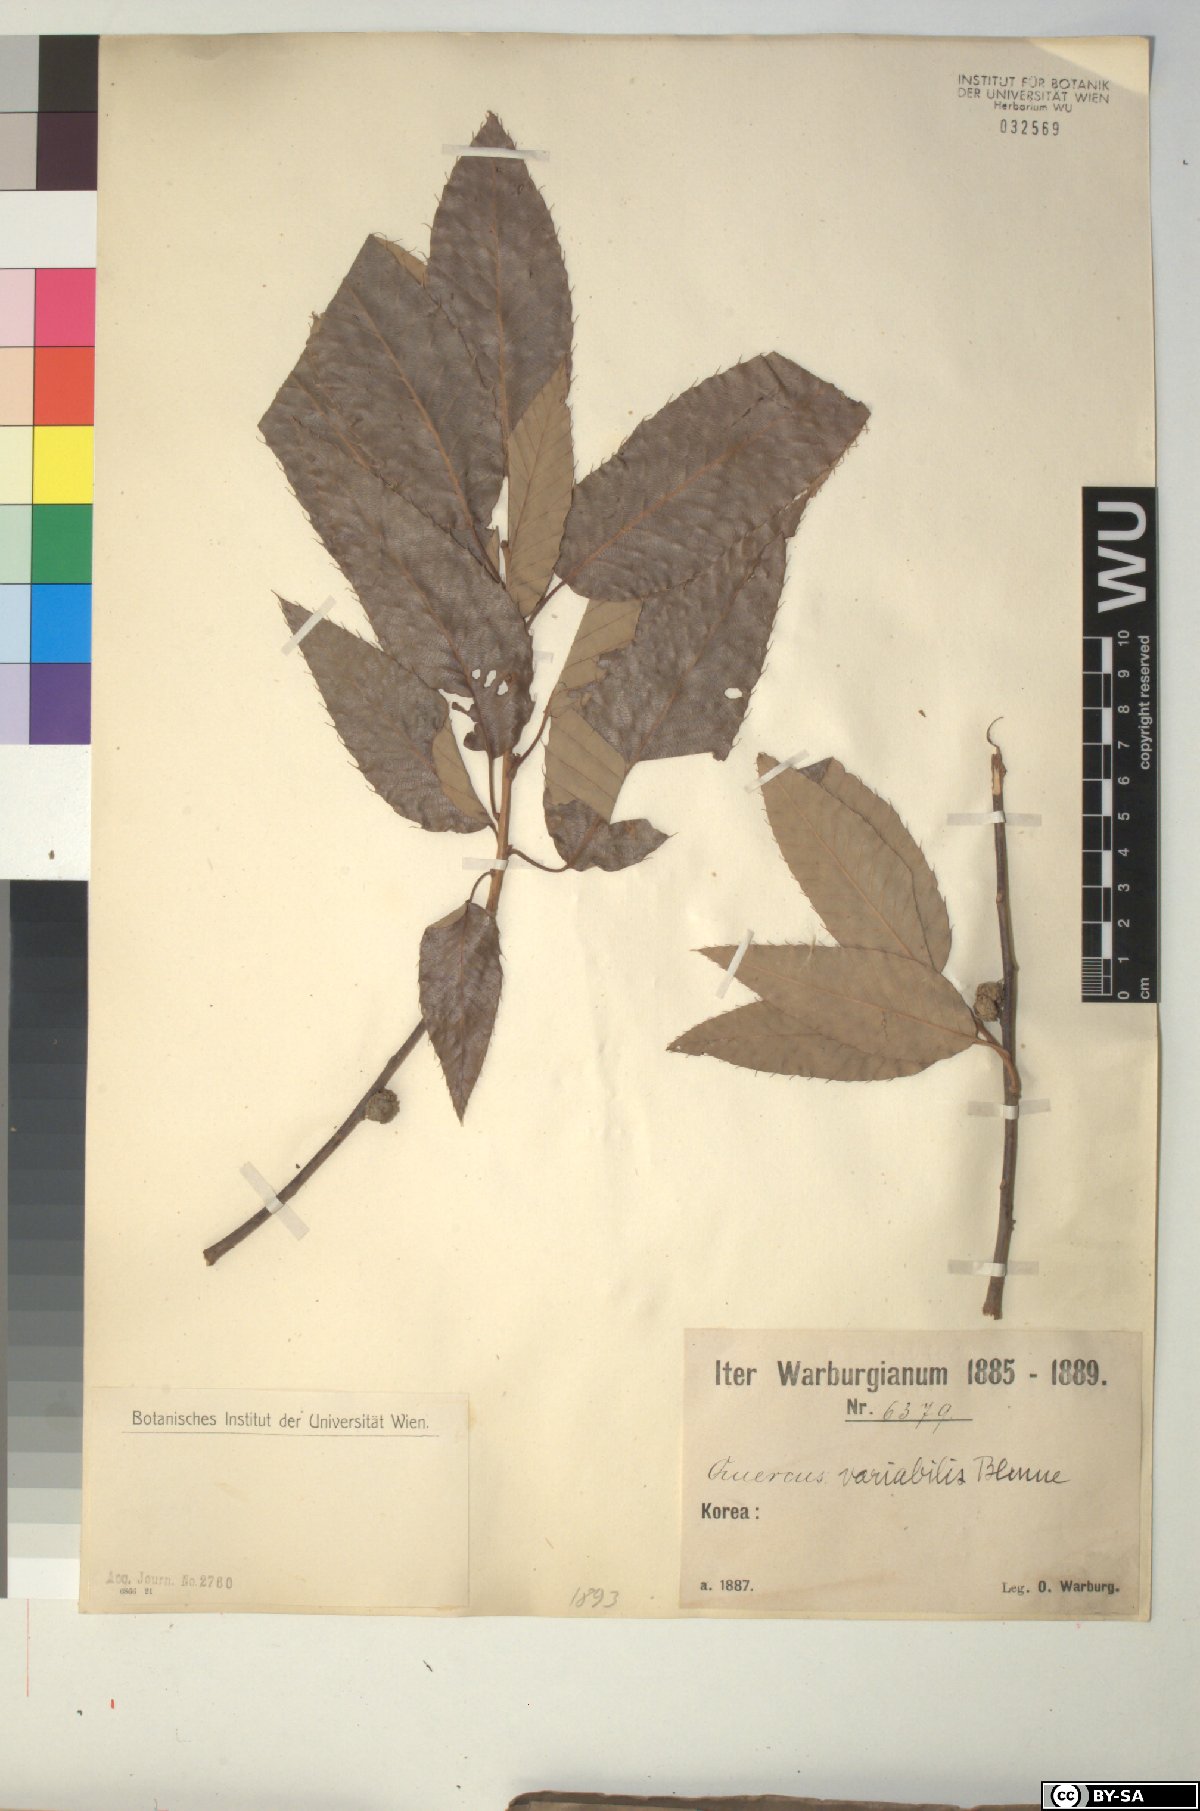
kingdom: Plantae
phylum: Tracheophyta
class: Magnoliopsida
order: Fagales
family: Fagaceae
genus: Quercus
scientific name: Quercus variabilis
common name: Chinese cork oak
